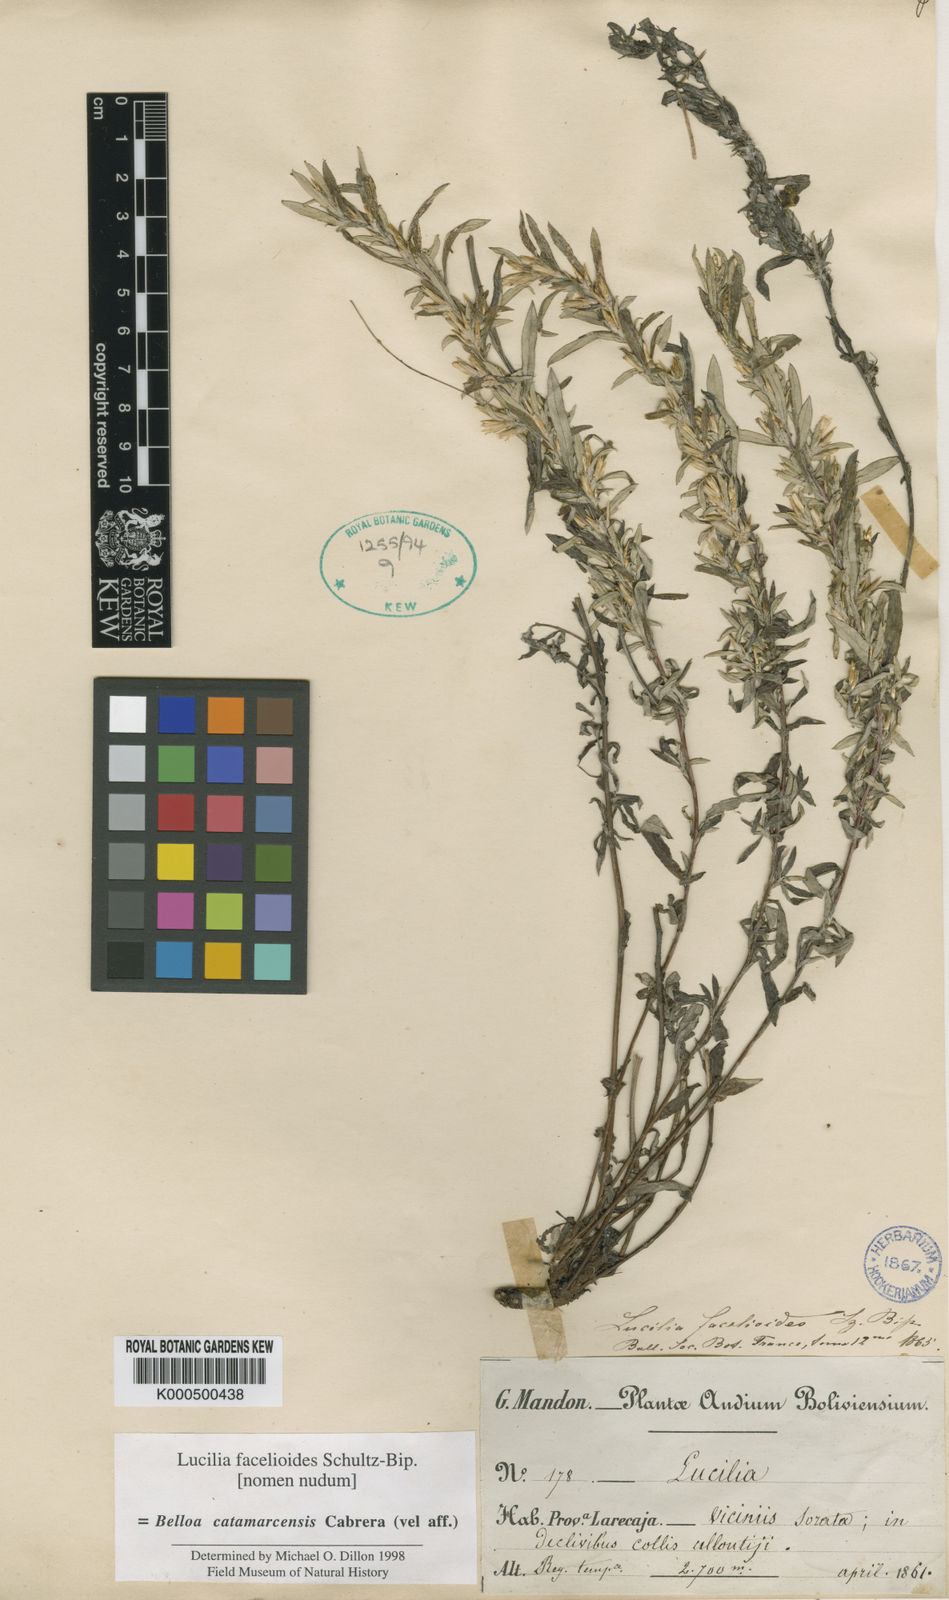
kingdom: Plantae
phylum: Tracheophyta
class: Magnoliopsida
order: Asterales
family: Asteraceae
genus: Mniodes
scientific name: Mniodes catamarcensis
